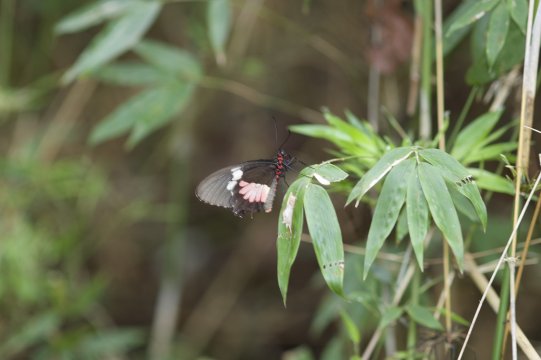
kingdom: Animalia
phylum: Arthropoda
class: Insecta
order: Lepidoptera
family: Papilionidae
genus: Parides
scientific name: Parides iphidamas
